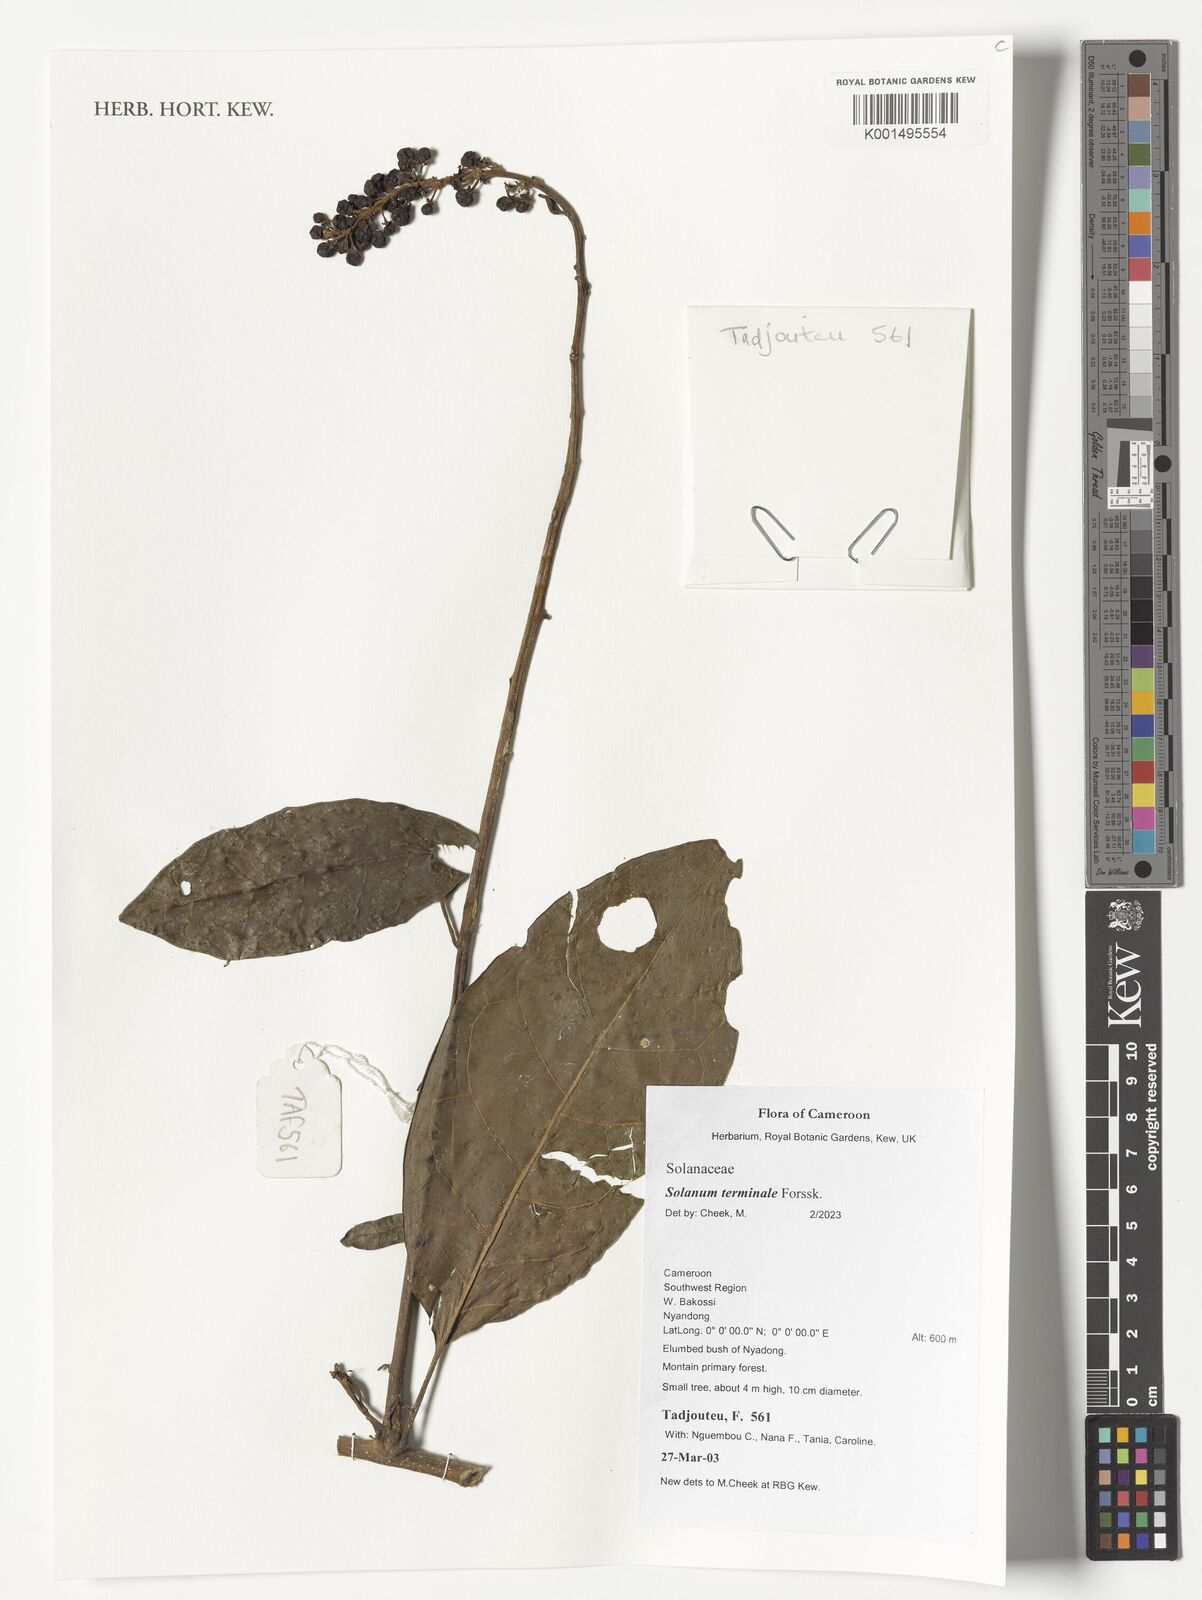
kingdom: Plantae
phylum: Tracheophyta
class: Magnoliopsida
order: Solanales
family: Solanaceae
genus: Solanum
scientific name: Solanum terminale
